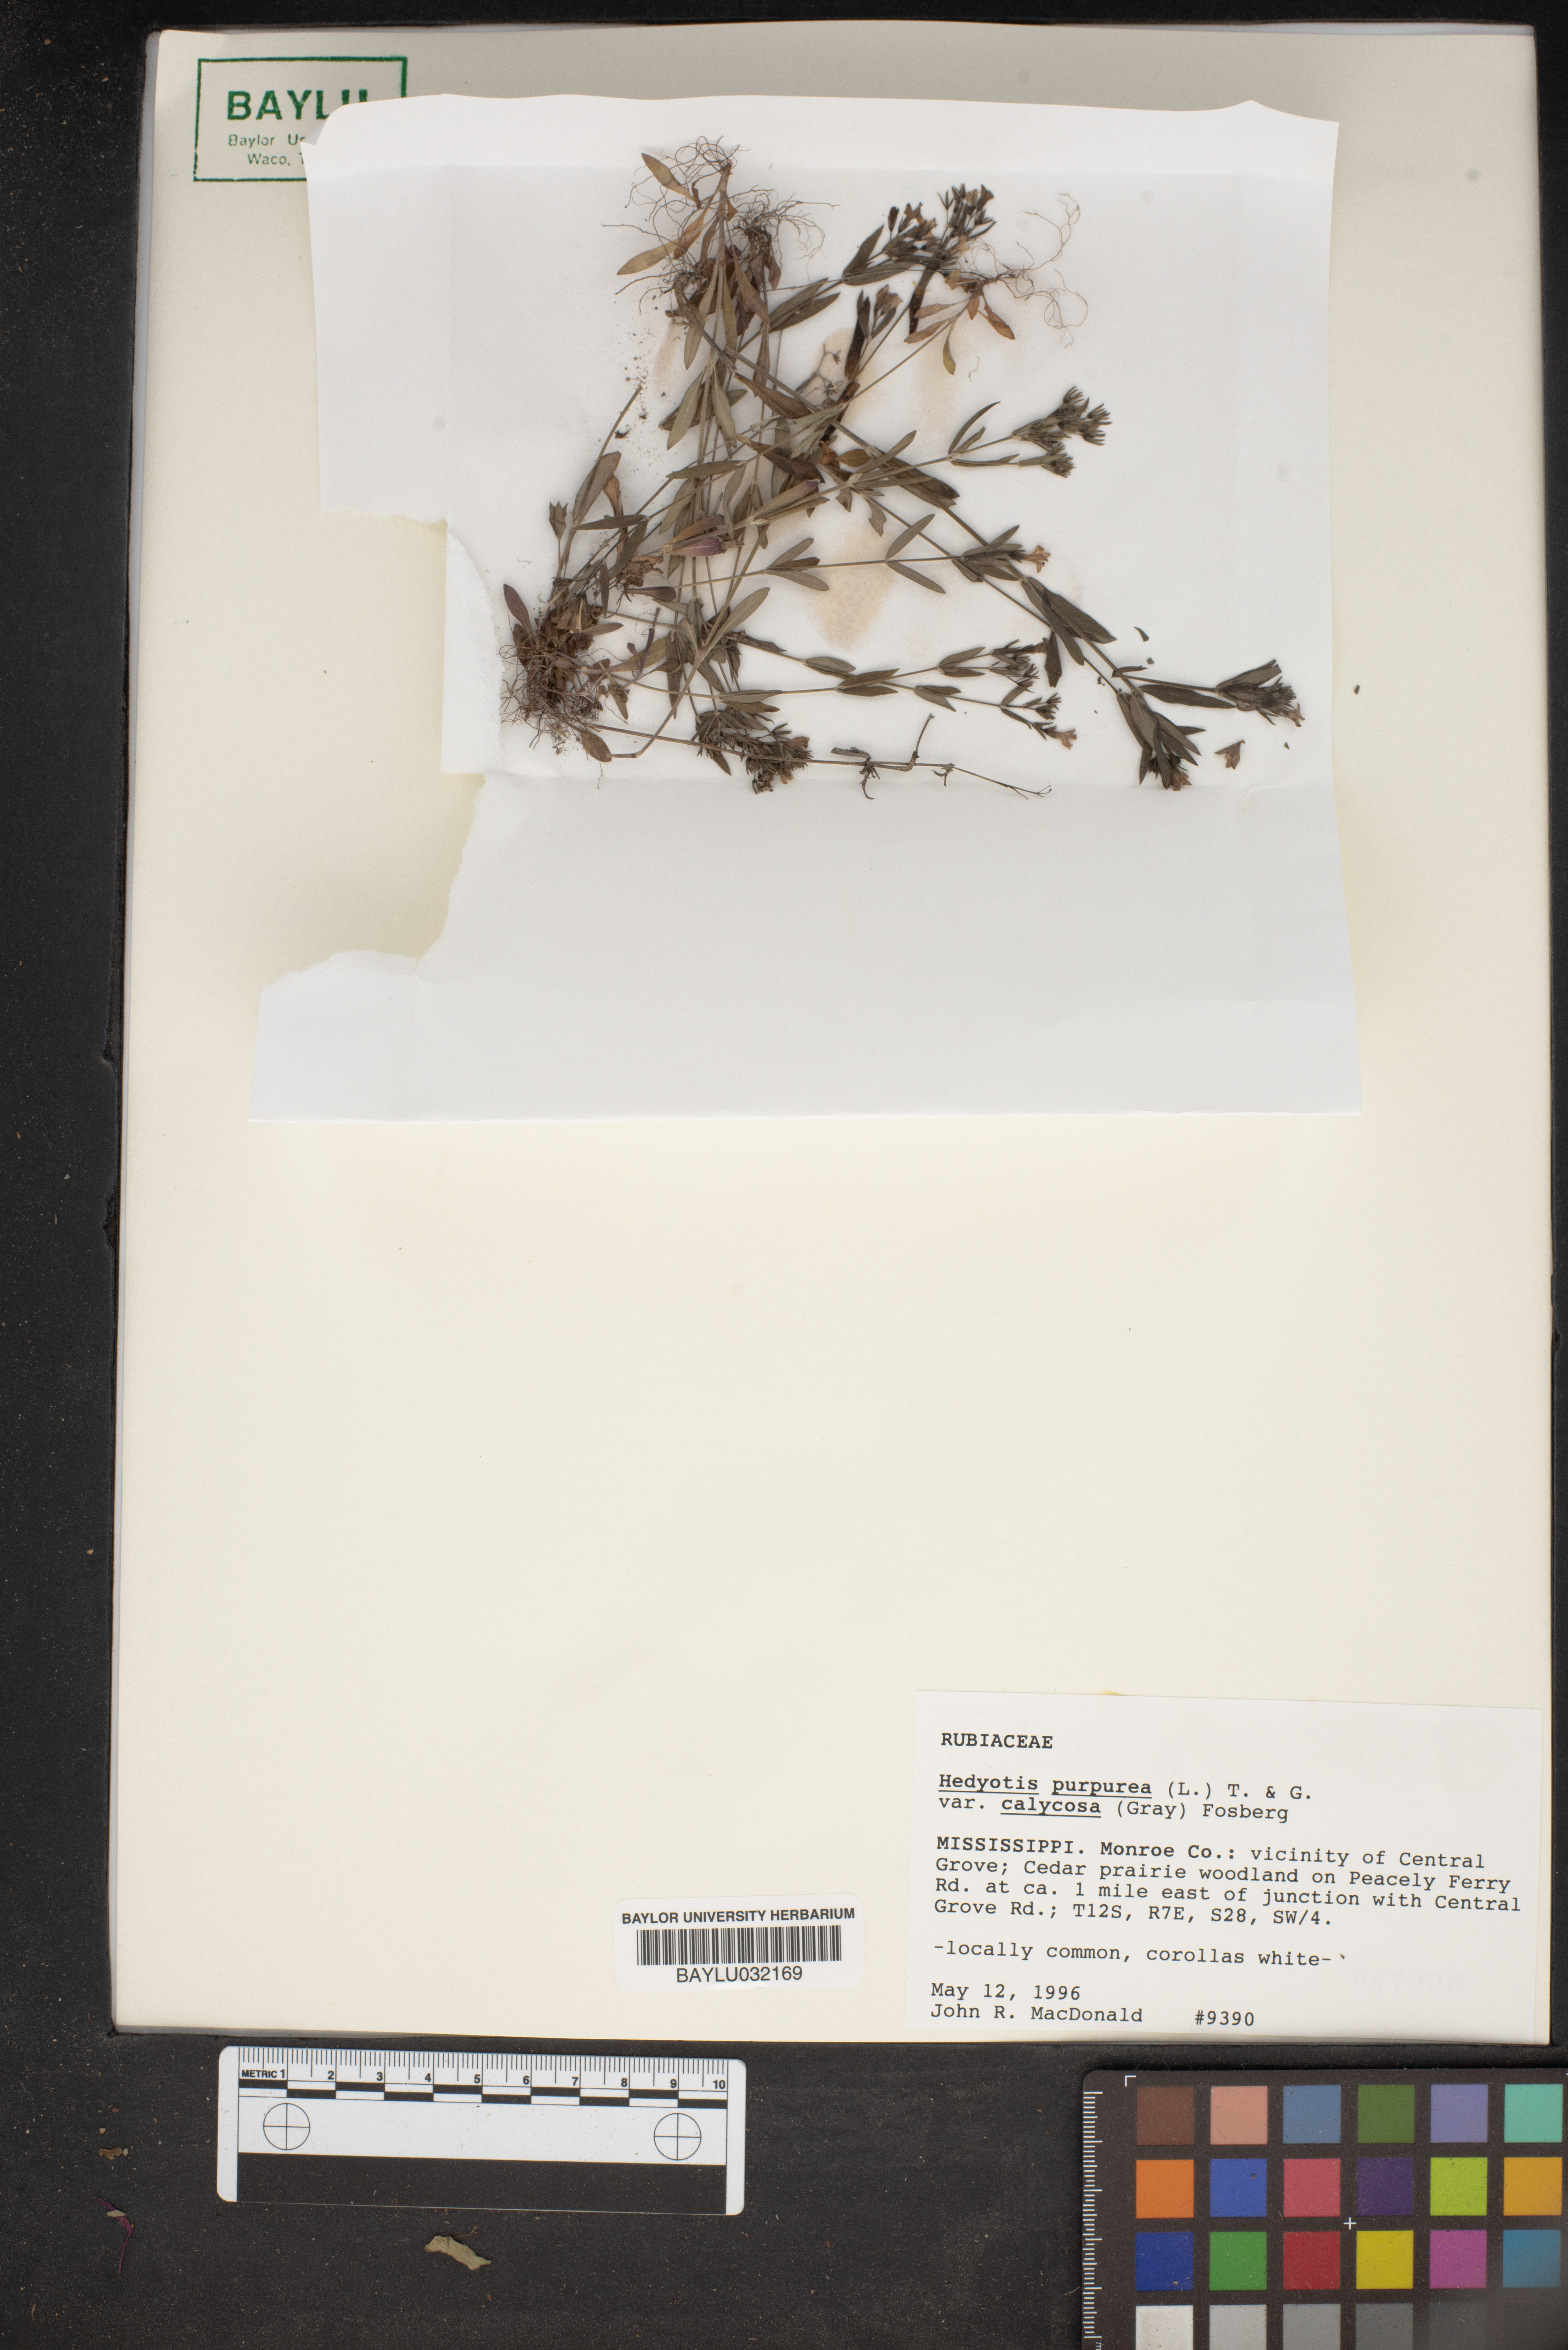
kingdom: Plantae
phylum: Tracheophyta
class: Magnoliopsida
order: Gentianales
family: Rubiaceae
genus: Houstonia
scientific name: Houstonia purpurea
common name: Summer bluet
